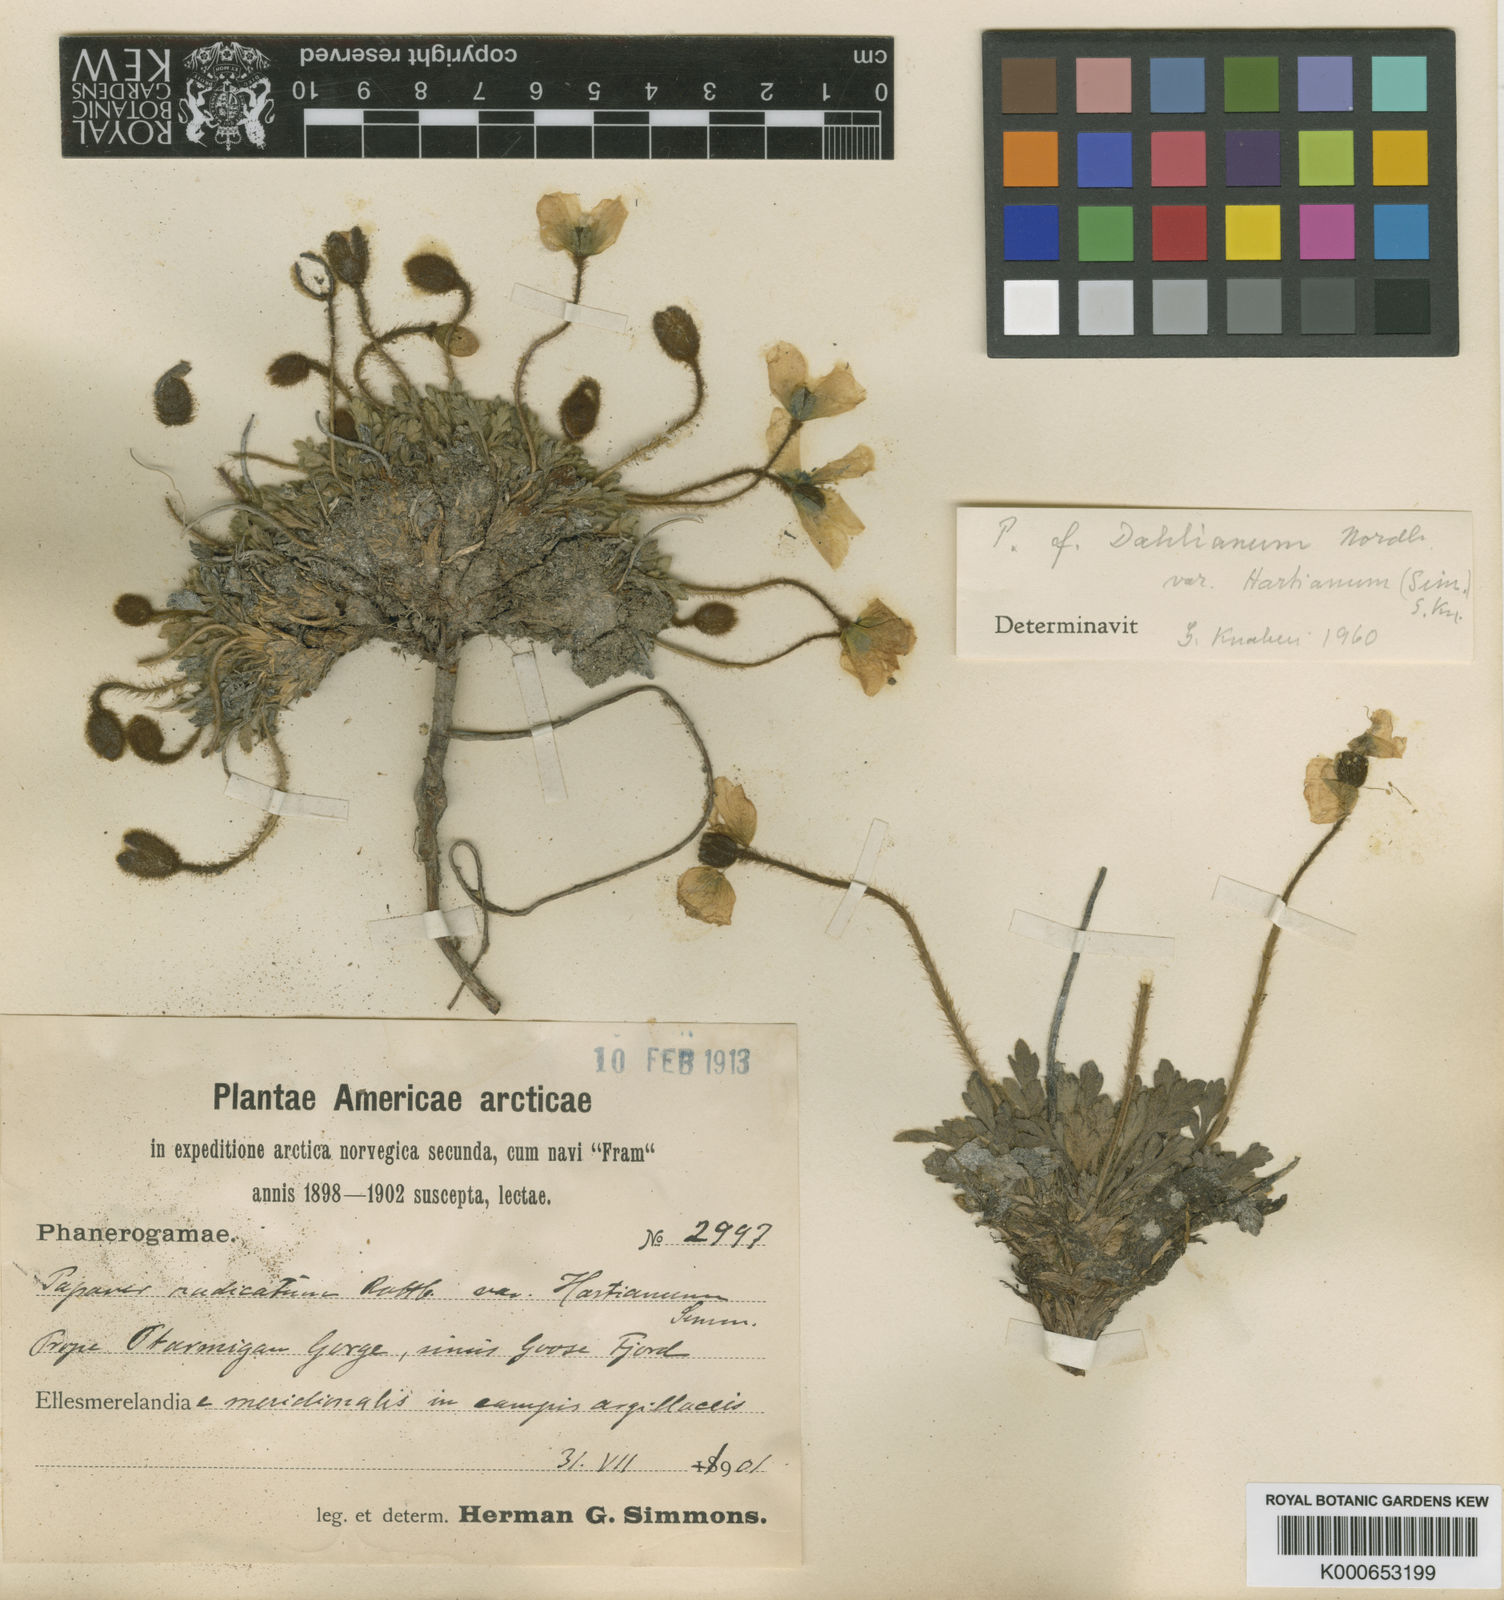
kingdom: Plantae
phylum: Tracheophyta
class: Magnoliopsida
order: Ranunculales
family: Papaveraceae
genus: Papaver
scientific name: Papaver radicatum
